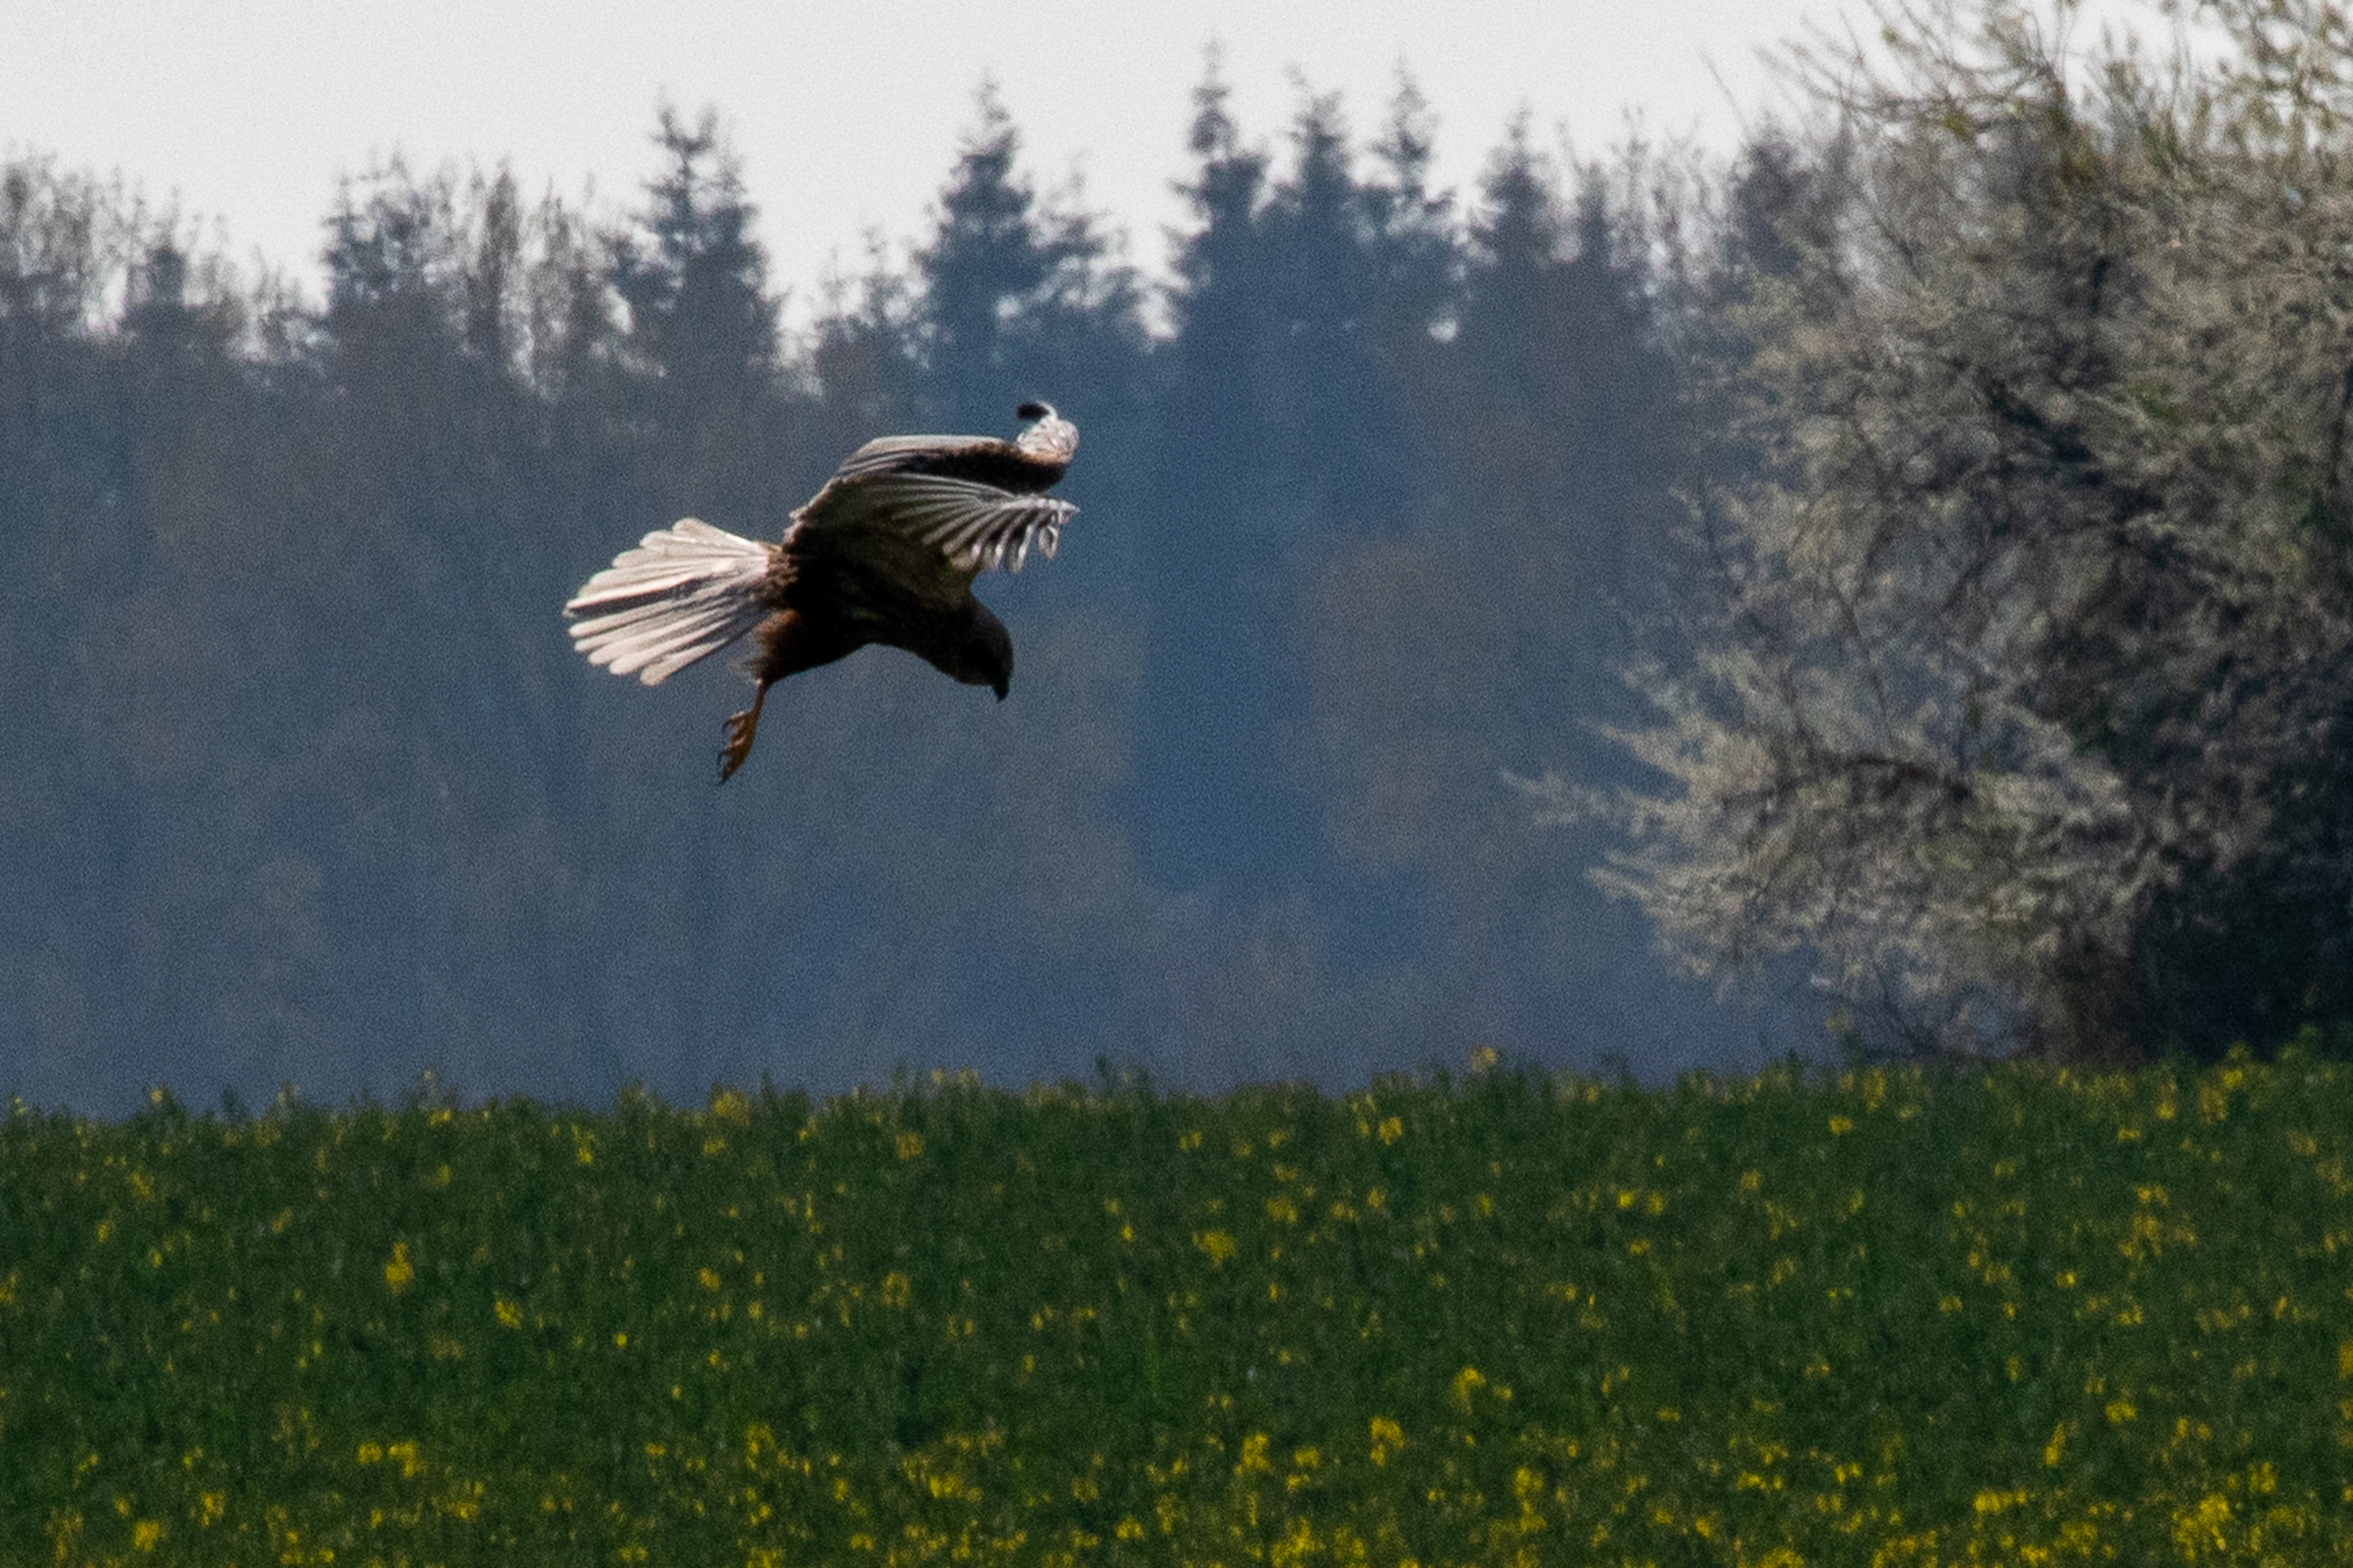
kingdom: Animalia
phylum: Chordata
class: Aves
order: Accipitriformes
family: Accipitridae
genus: Circus
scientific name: Circus aeruginosus
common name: Rørhøg
